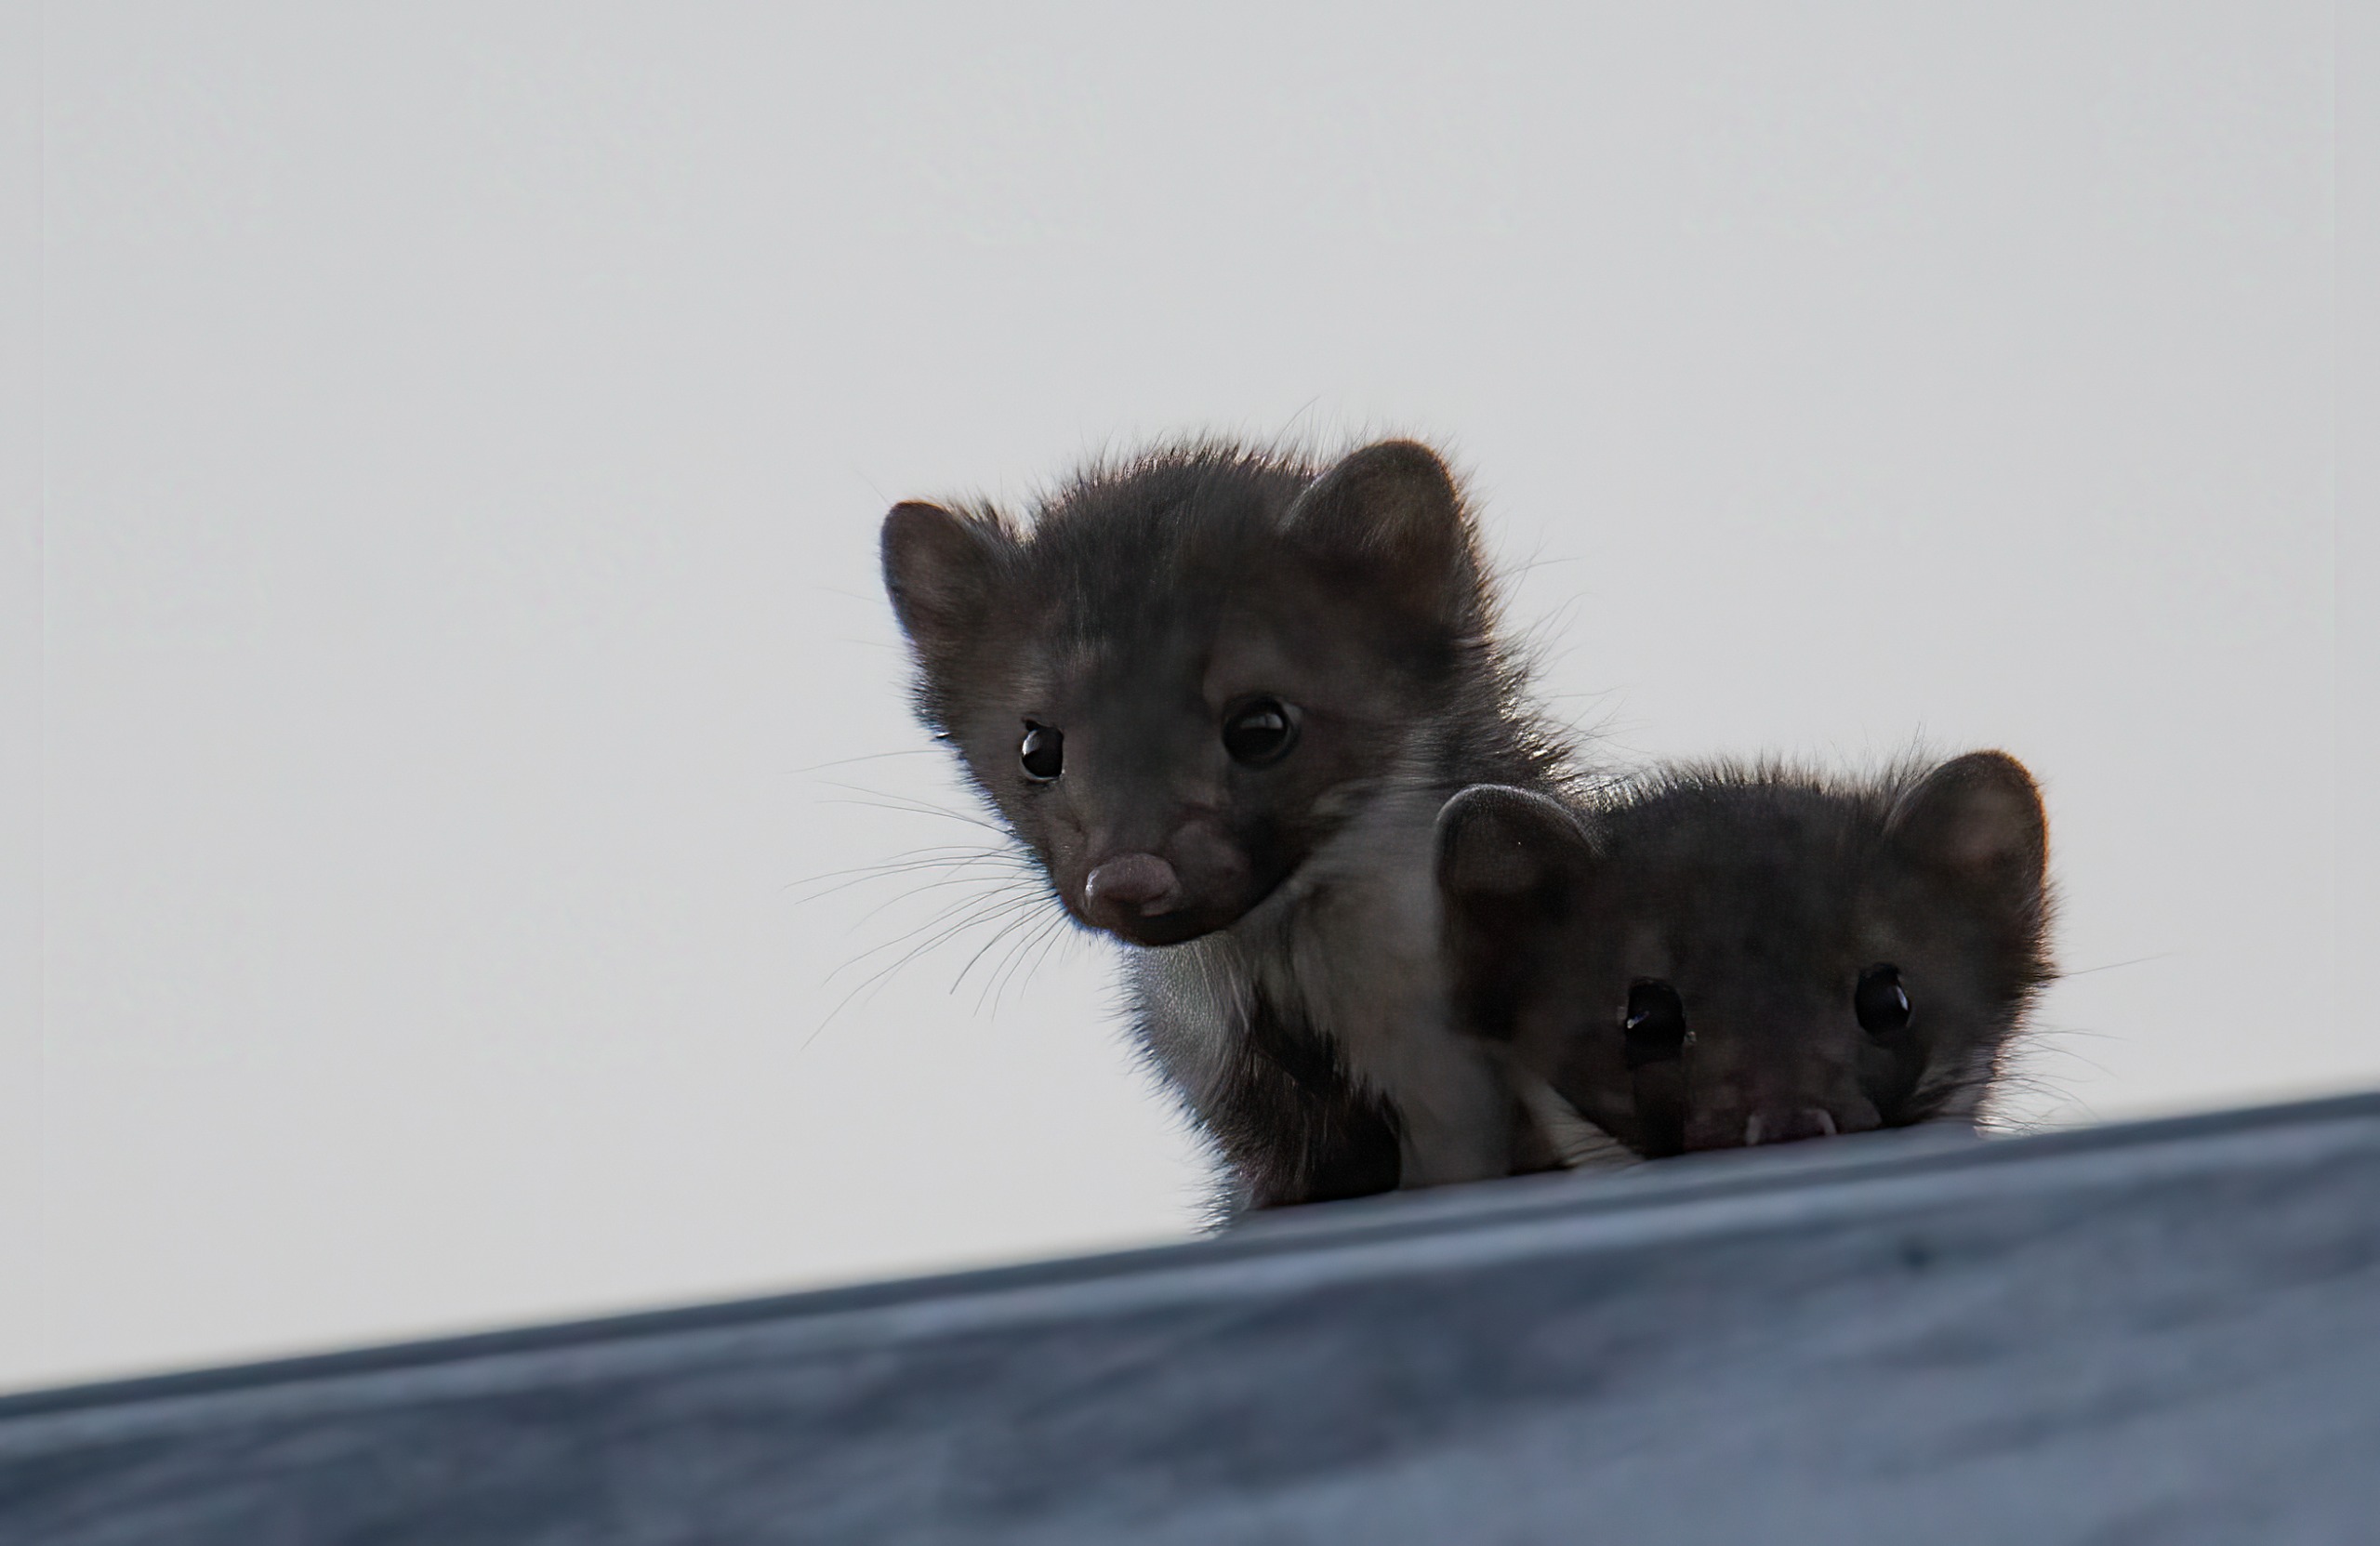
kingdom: Animalia
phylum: Chordata
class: Mammalia
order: Carnivora
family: Mustelidae
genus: Martes
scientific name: Martes foina
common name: Husmår
